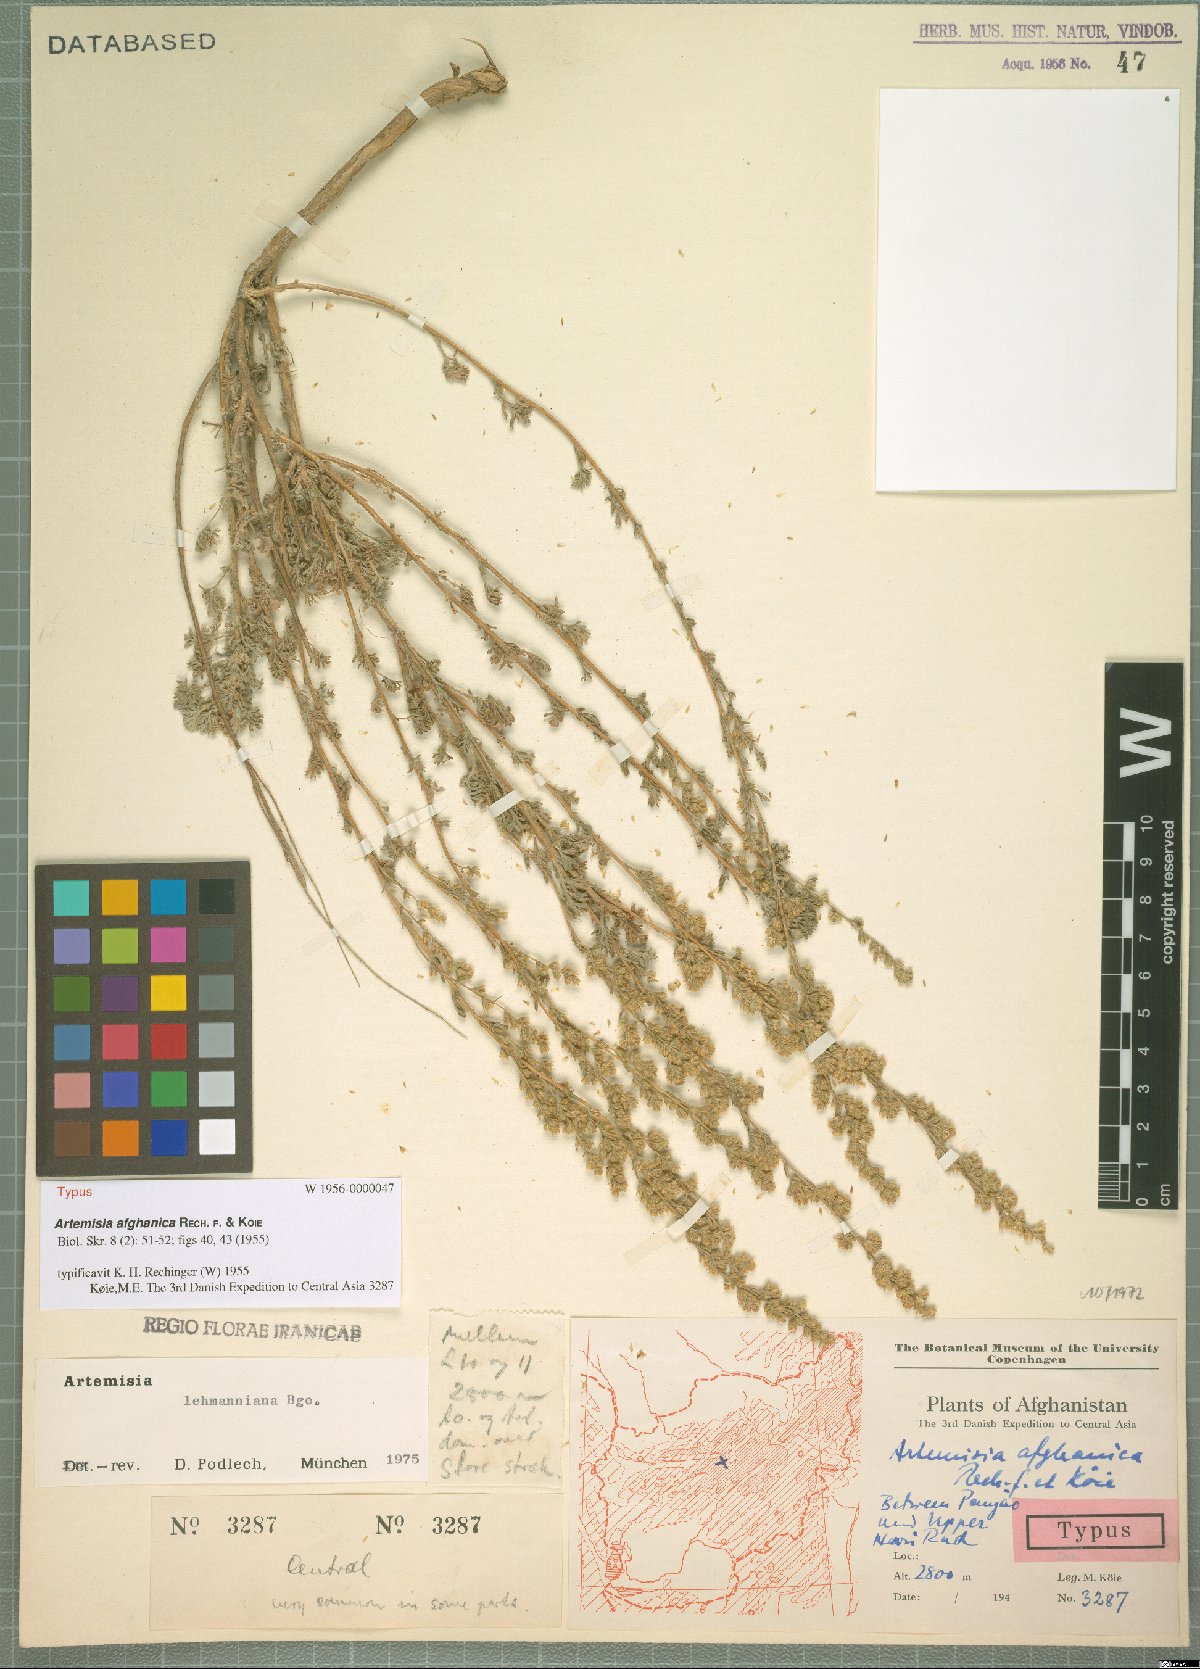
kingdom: Plantae
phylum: Tracheophyta
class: Magnoliopsida
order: Asterales
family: Asteraceae
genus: Artemisia
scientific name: Artemisia korshinskyi
